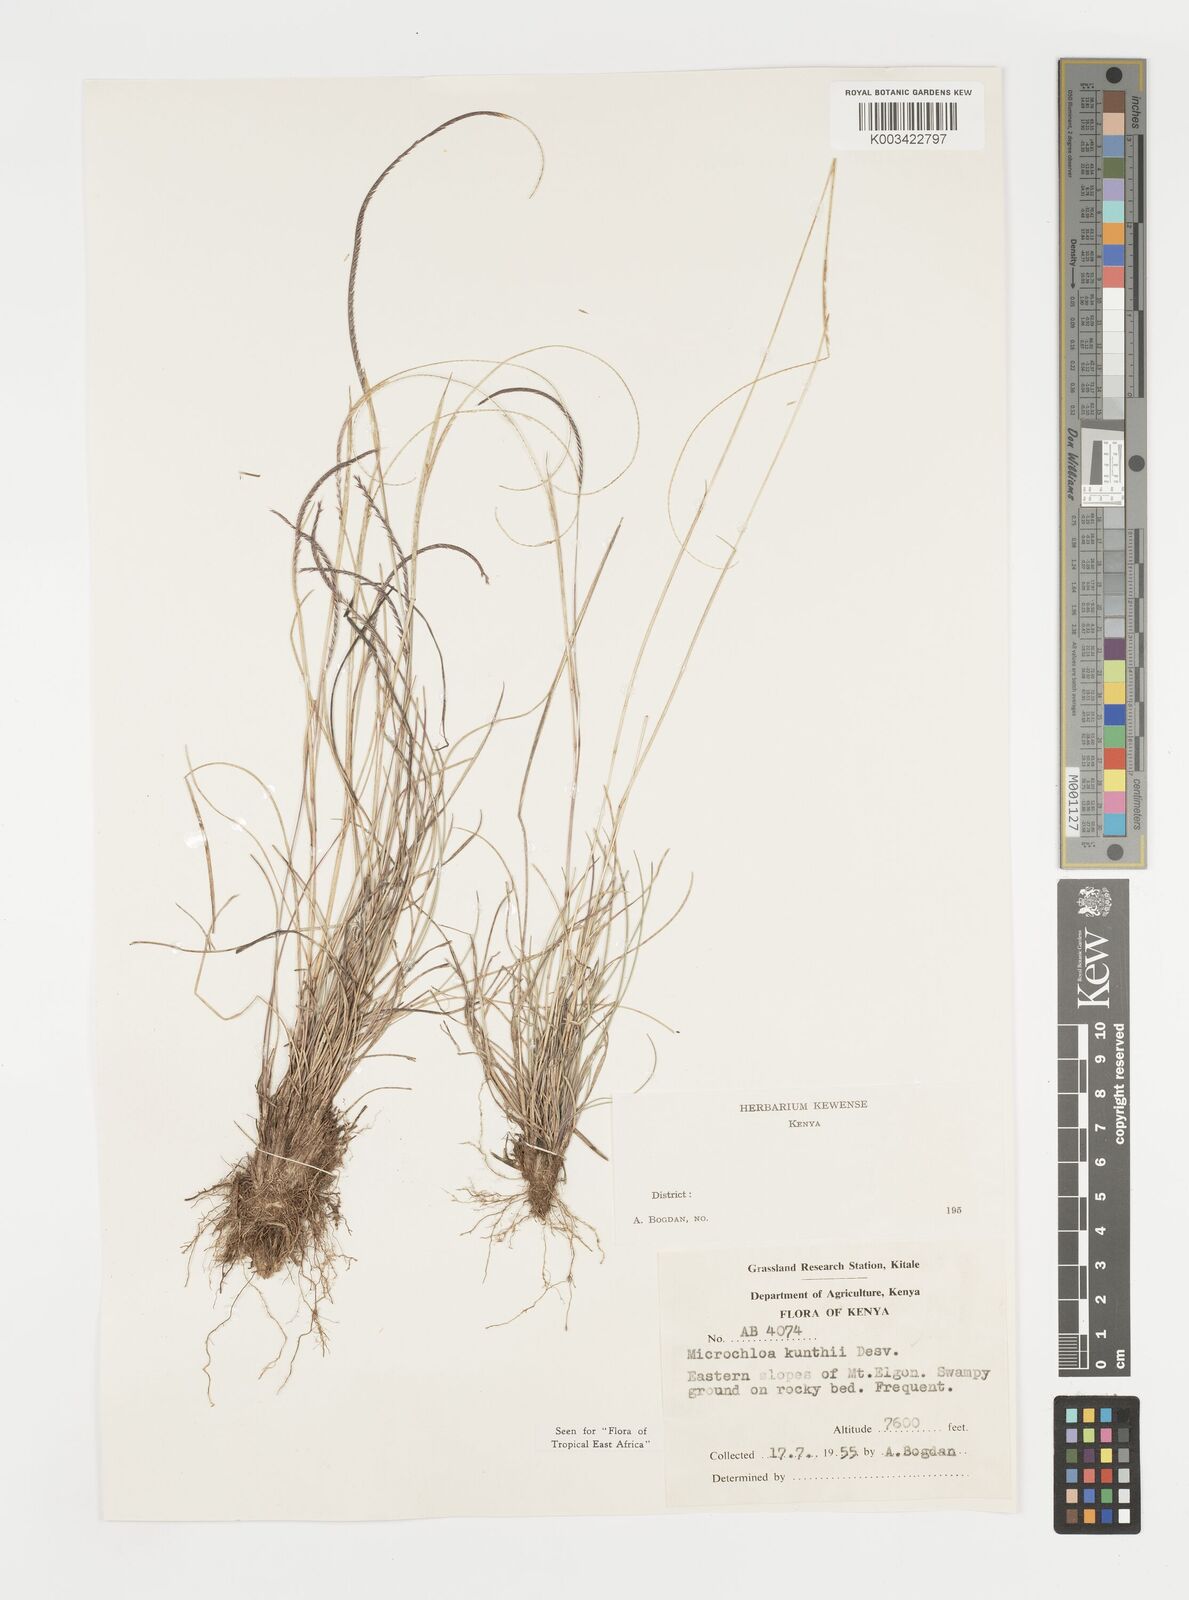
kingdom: Plantae
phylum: Tracheophyta
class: Liliopsida
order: Poales
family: Poaceae
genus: Microchloa
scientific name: Microchloa kunthii
